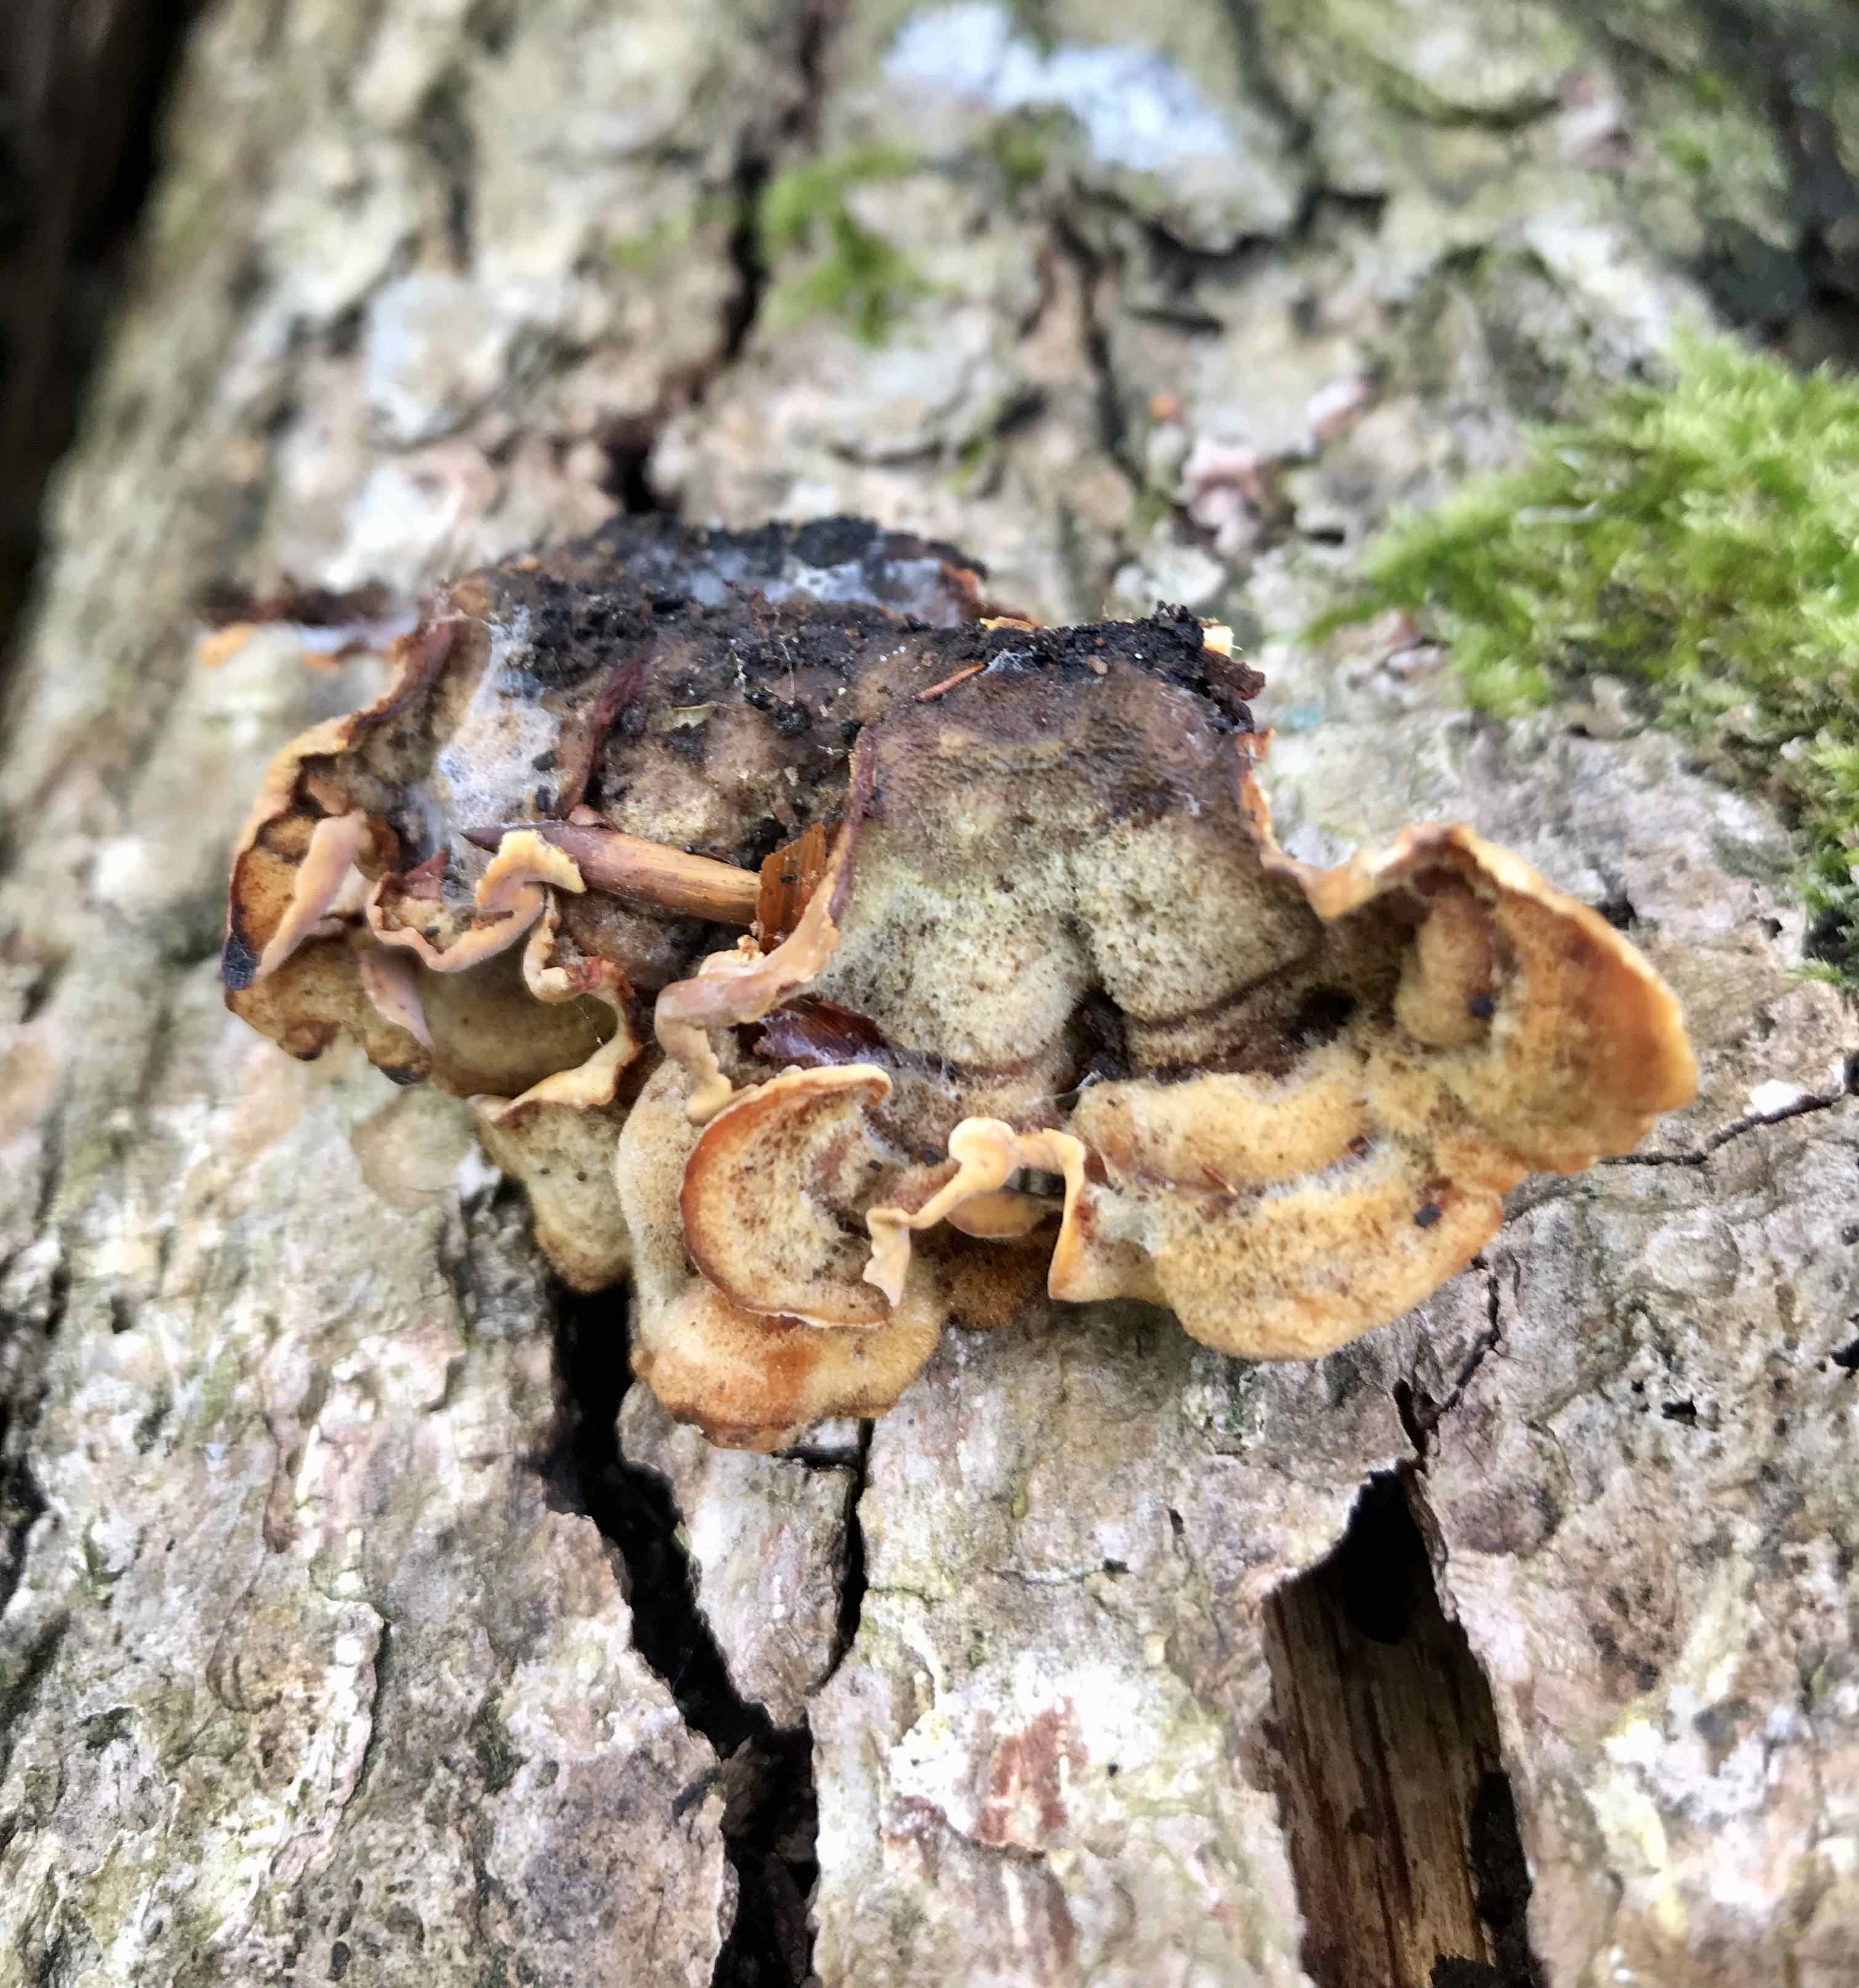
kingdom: Fungi
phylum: Basidiomycota
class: Agaricomycetes
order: Russulales
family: Stereaceae
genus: Stereum
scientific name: Stereum hirsutum
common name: håret lædersvamp
